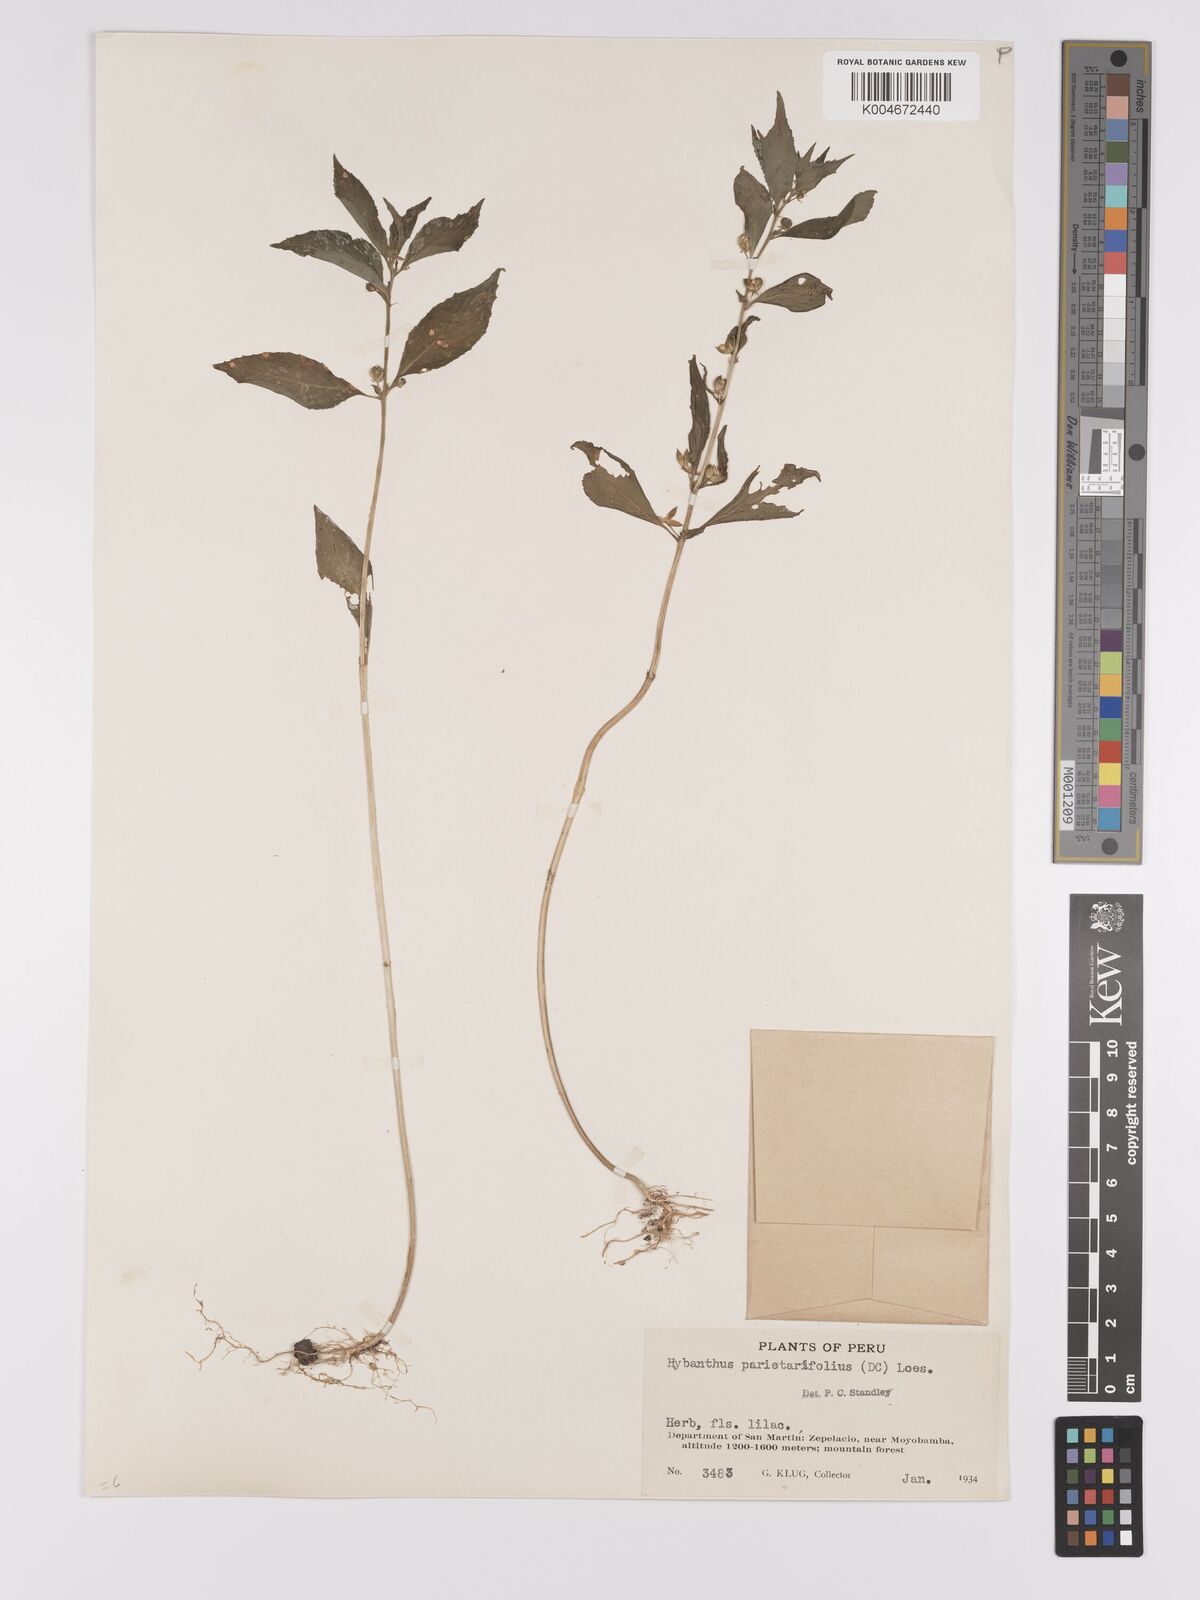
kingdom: Plantae
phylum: Tracheophyta
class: Magnoliopsida
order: Malpighiales
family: Violaceae
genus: Pombalia
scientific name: Pombalia oppositifolia
